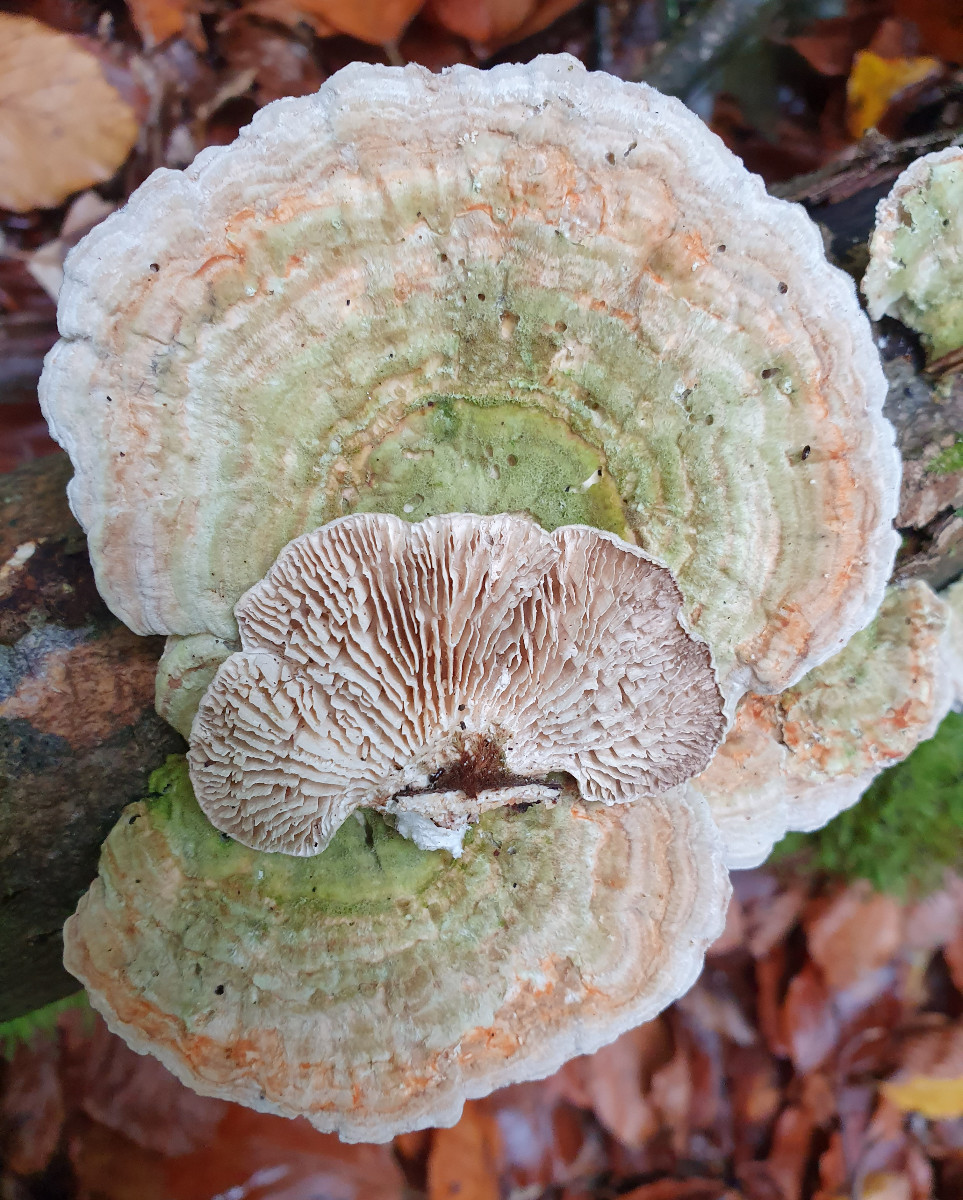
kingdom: Fungi
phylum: Basidiomycota
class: Agaricomycetes
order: Polyporales
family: Polyporaceae
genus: Lenzites
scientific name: Lenzites betulinus
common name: birke-læderporesvamp
